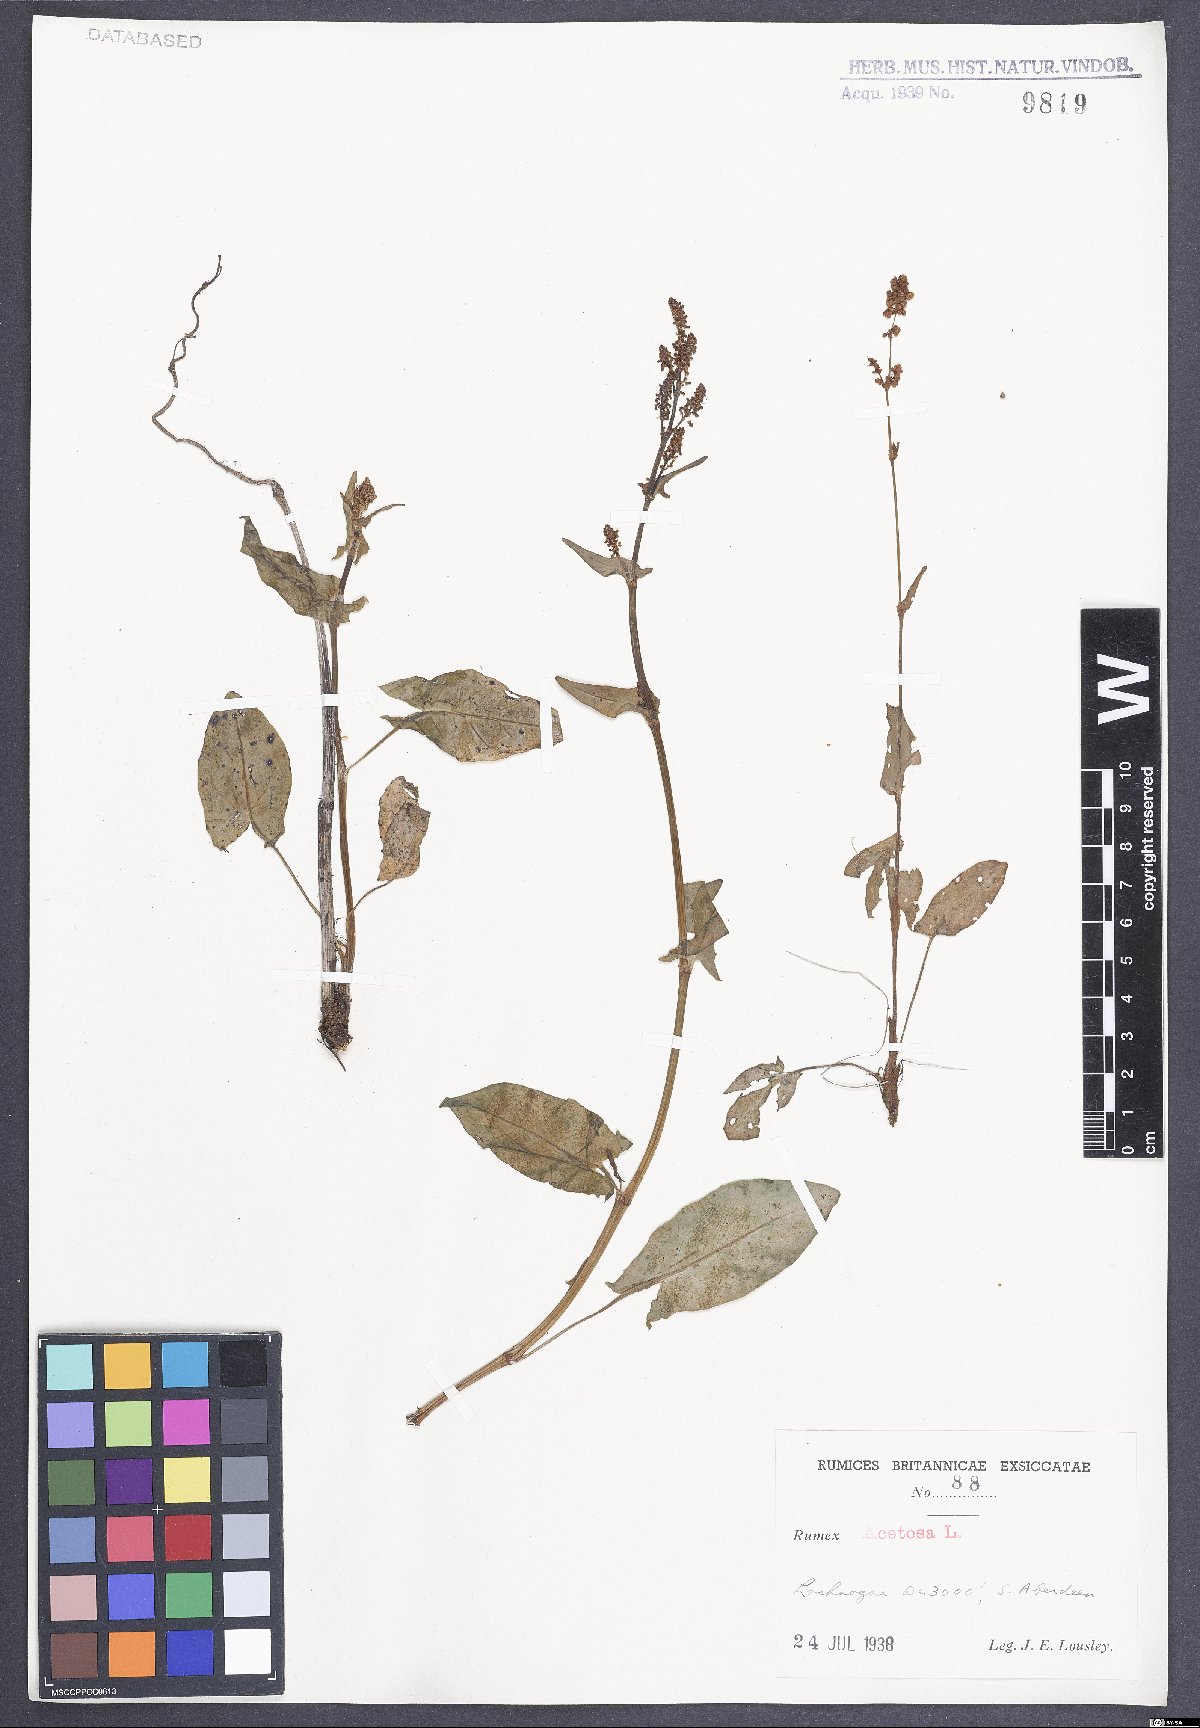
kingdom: Plantae
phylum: Tracheophyta
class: Magnoliopsida
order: Caryophyllales
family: Polygonaceae
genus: Rumex
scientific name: Rumex acetosa
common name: Garden sorrel
